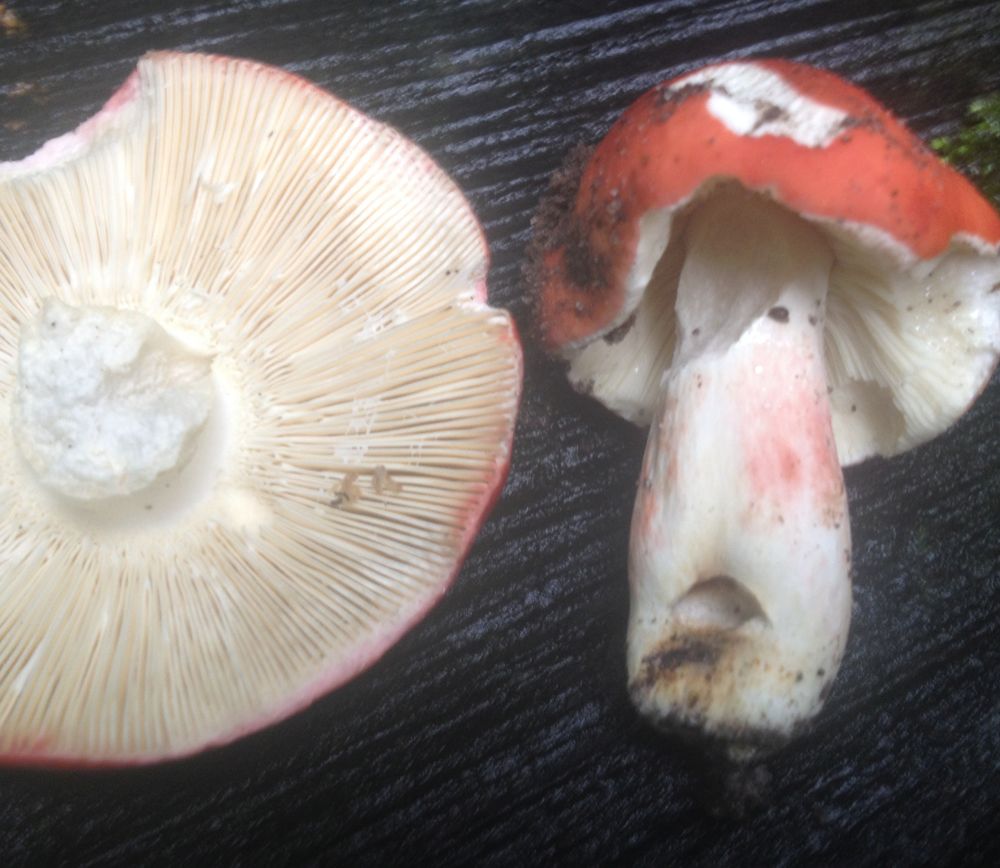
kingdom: Fungi
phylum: Basidiomycota
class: Agaricomycetes
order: Russulales
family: Russulaceae
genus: Russula
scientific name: Russula rosea
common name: fastkødet skørhat
